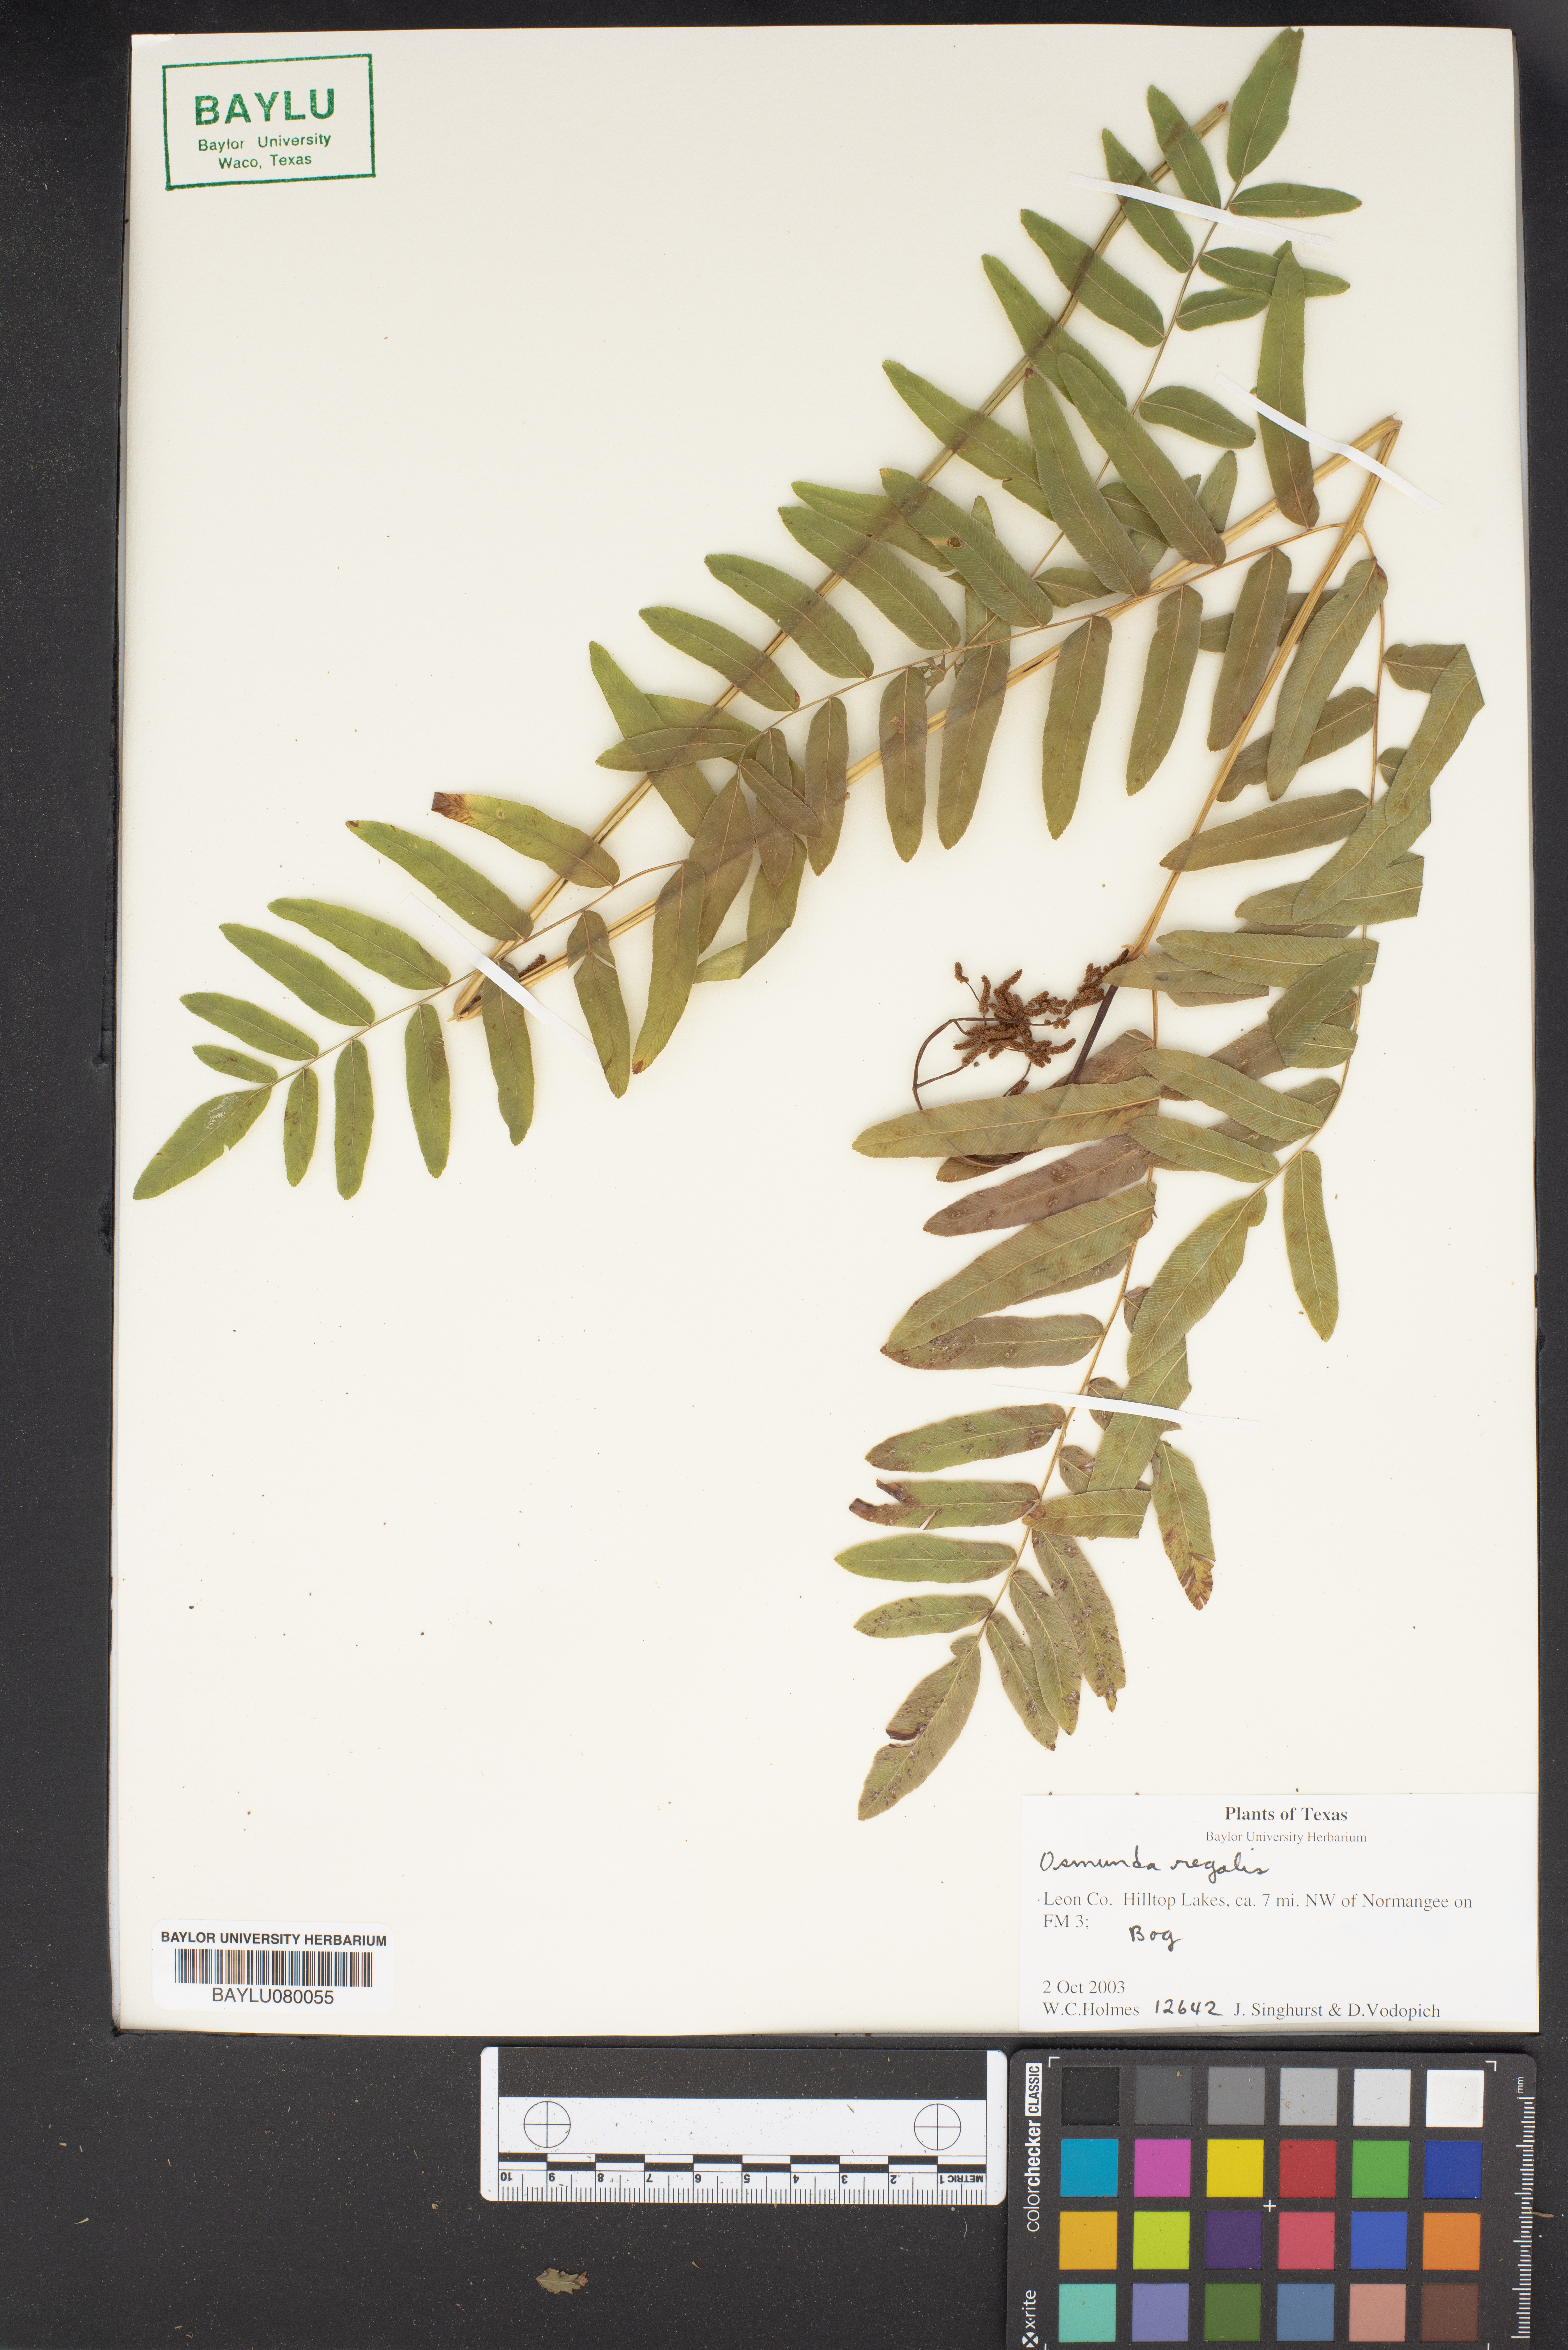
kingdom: Plantae
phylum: Tracheophyta
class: Polypodiopsida
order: Osmundales
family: Osmundaceae
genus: Osmunda
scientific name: Osmunda regalis
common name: Royal fern
